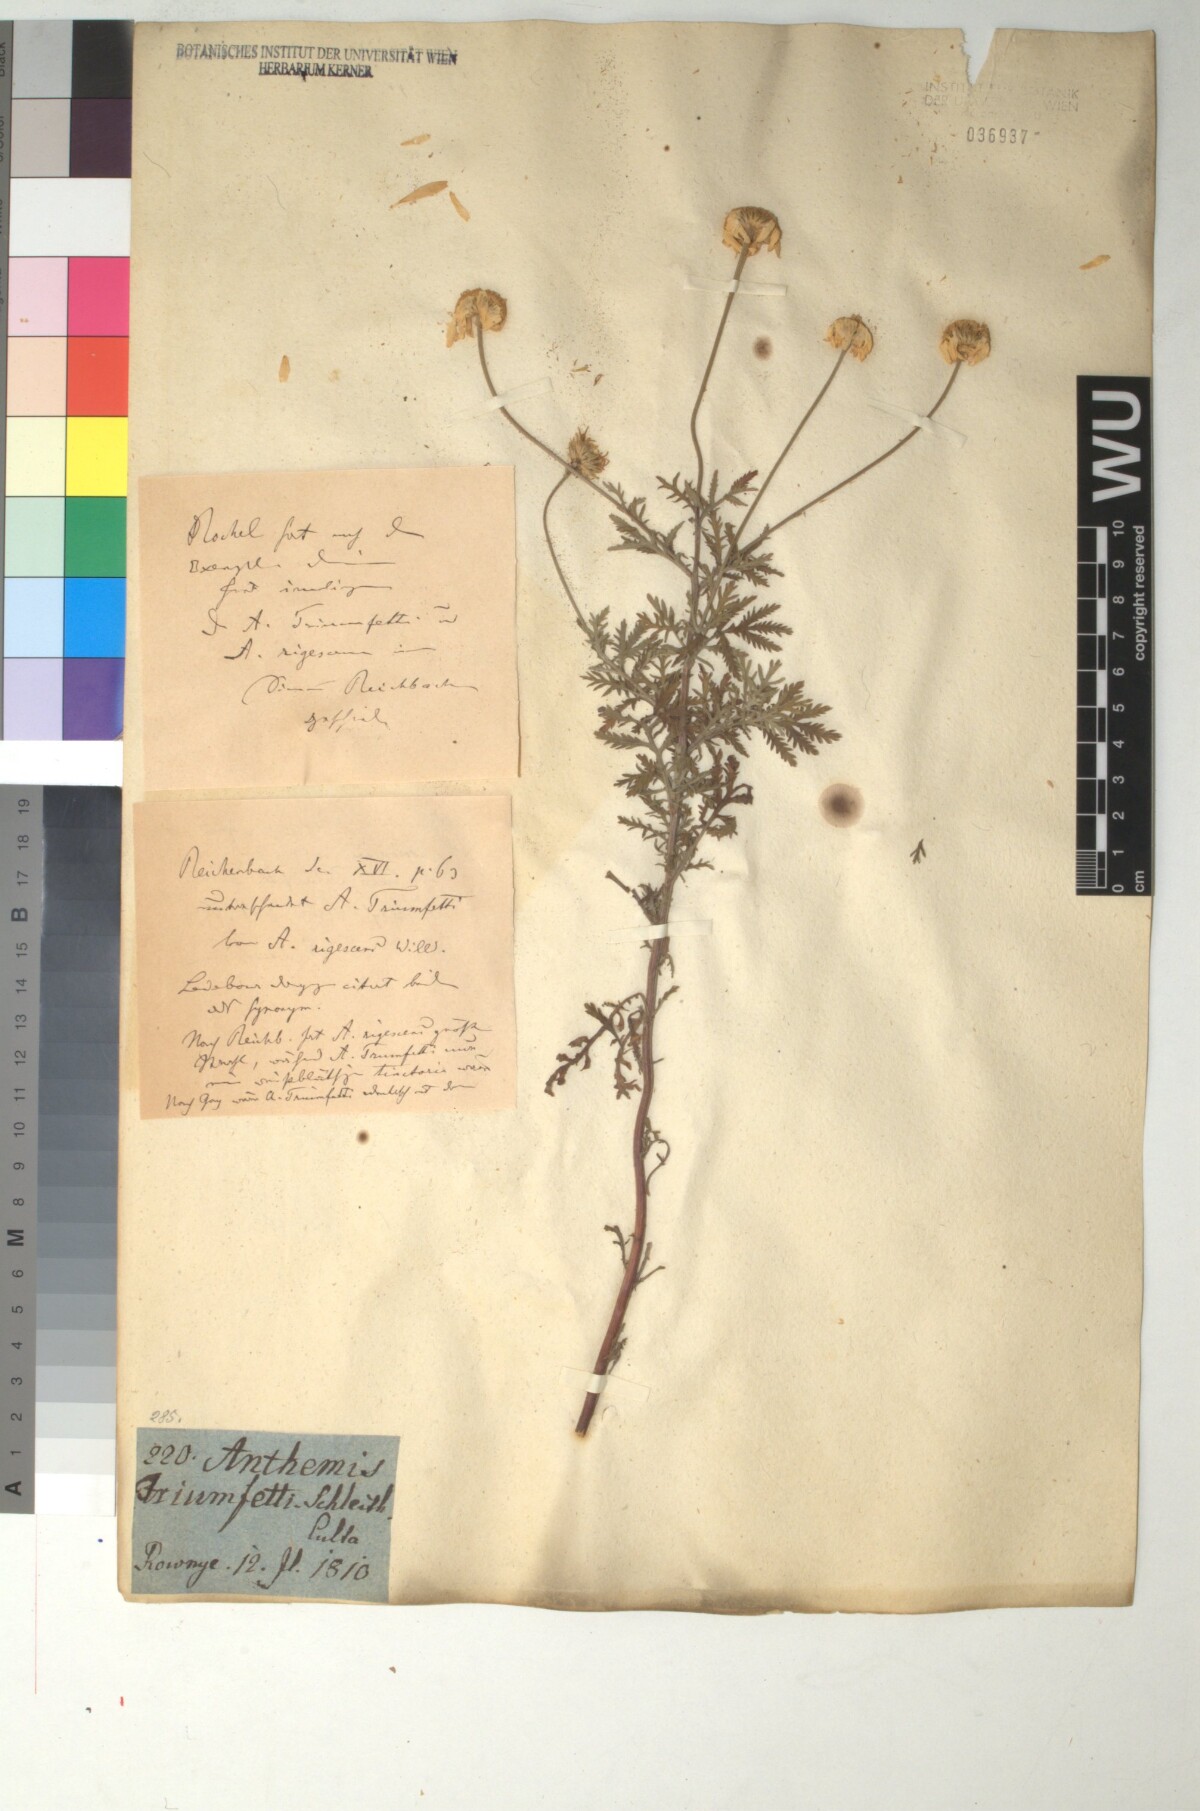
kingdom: Plantae
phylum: Tracheophyta
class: Magnoliopsida
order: Asterales
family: Asteraceae
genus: Cota
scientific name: Cota triumfetti
